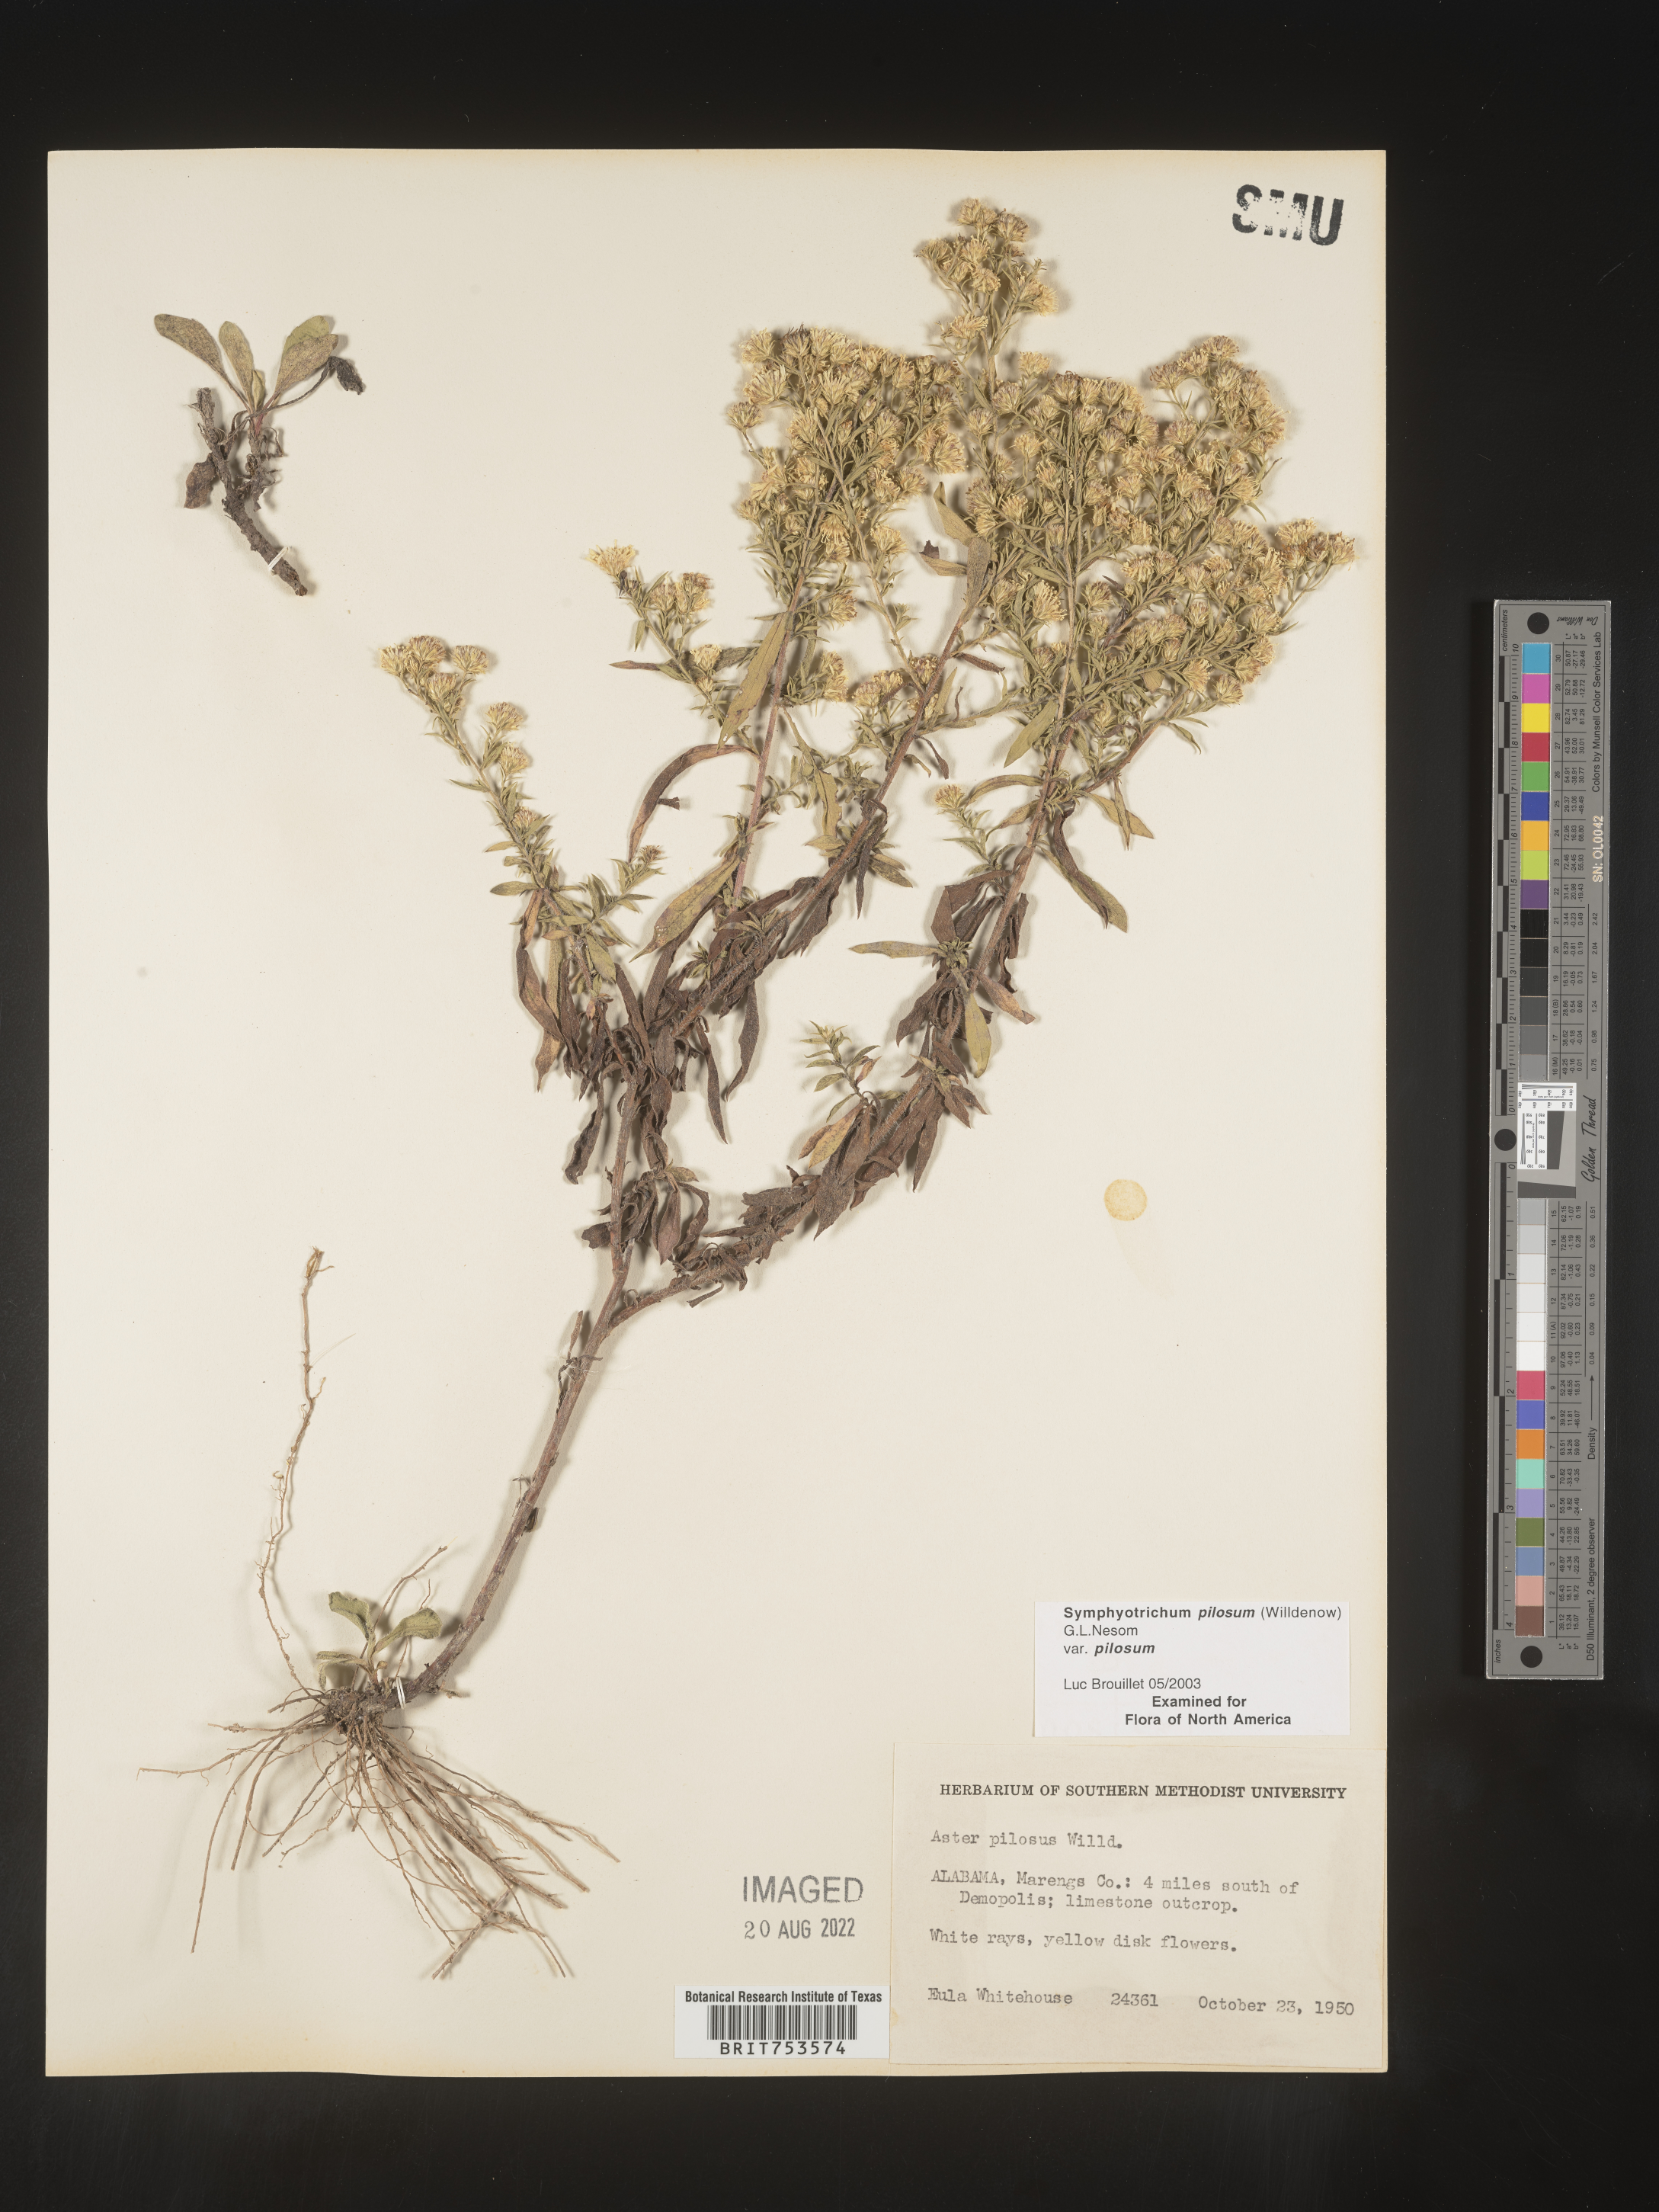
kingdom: Plantae
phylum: Tracheophyta
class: Magnoliopsida
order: Asterales
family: Asteraceae
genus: Symphyotrichum
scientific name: Symphyotrichum pilosum
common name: Awl aster
